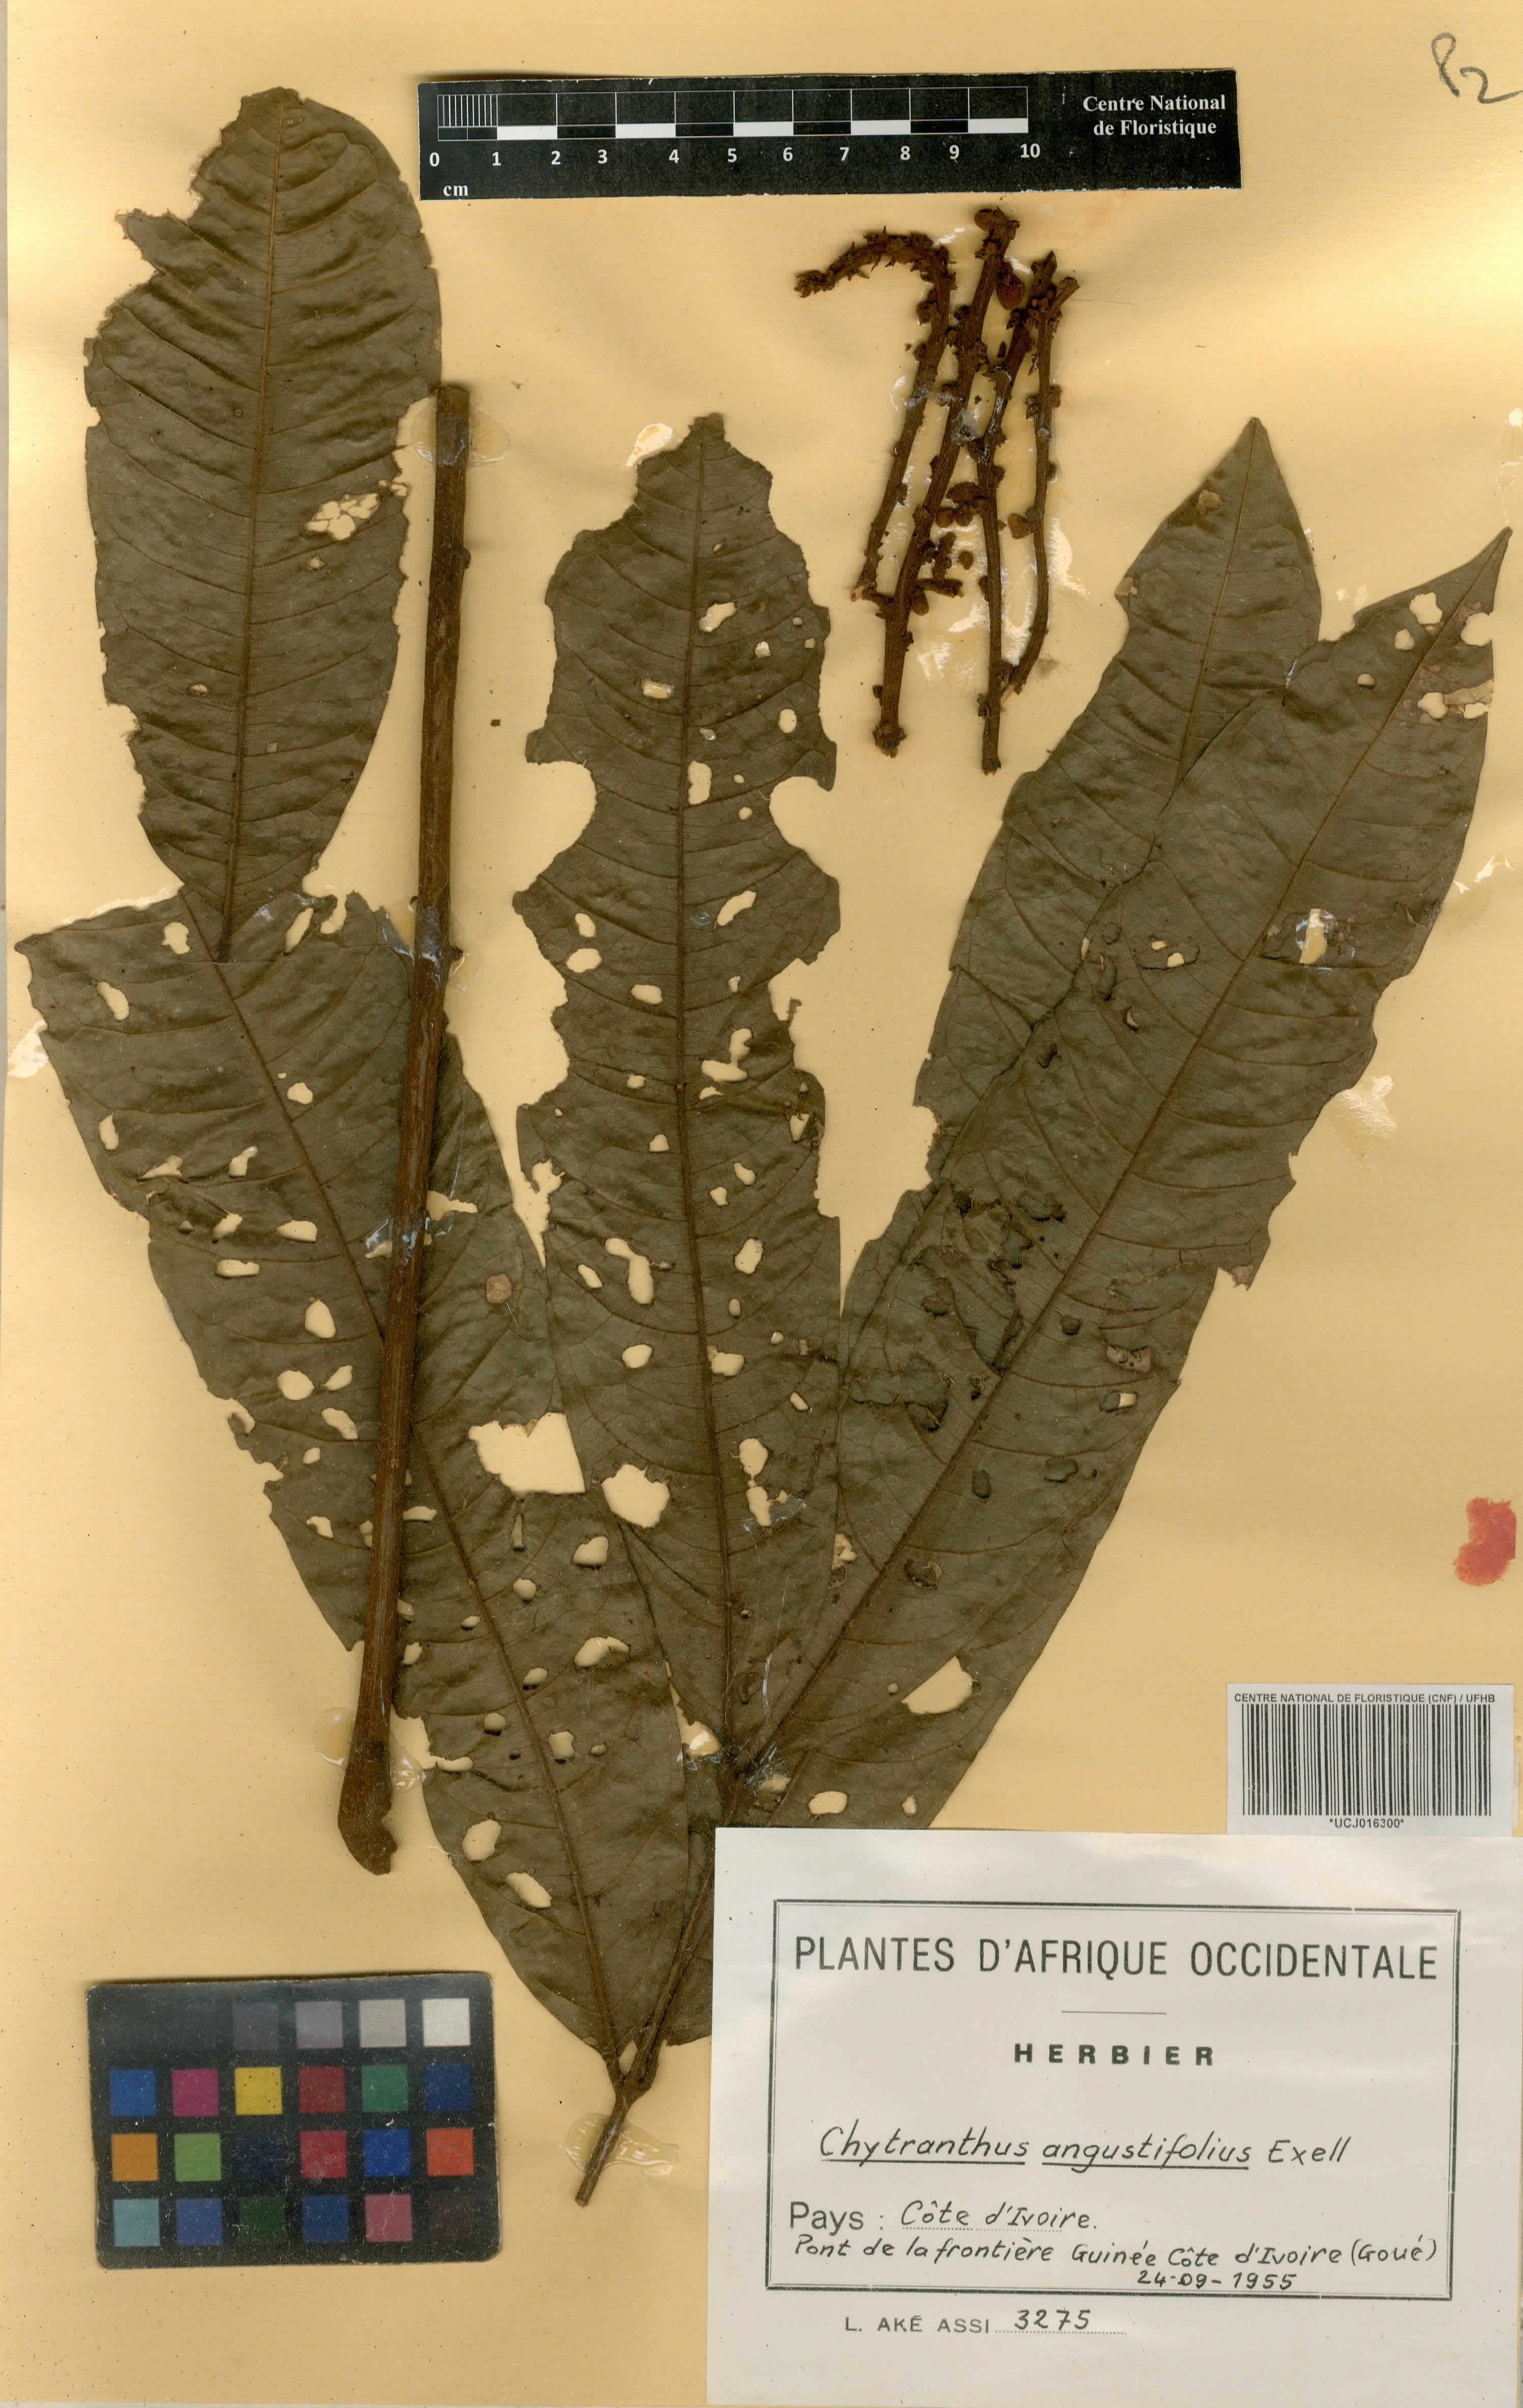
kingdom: Plantae
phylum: Tracheophyta
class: Magnoliopsida
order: Sapindales
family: Sapindaceae
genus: Chytranthus
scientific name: Chytranthus angustifolius
